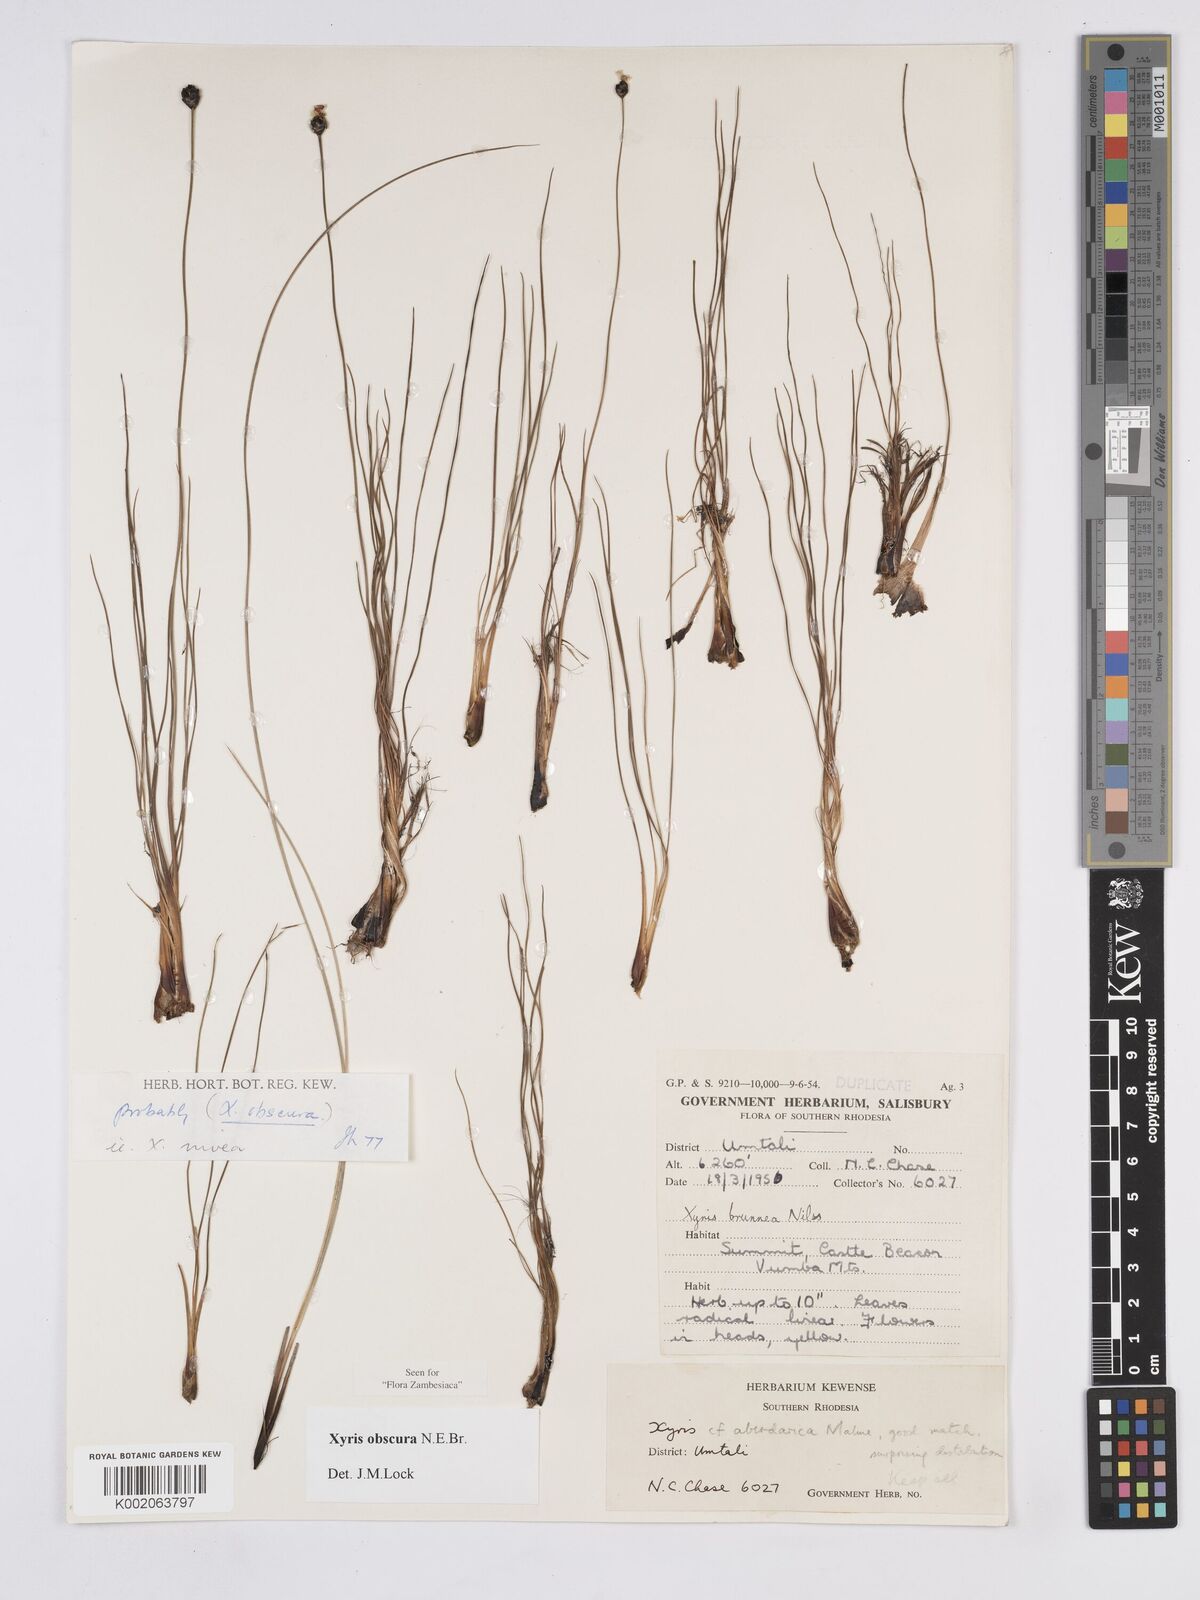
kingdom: Plantae
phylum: Tracheophyta
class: Liliopsida
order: Poales
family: Xyridaceae
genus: Xyris
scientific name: Xyris obscura
